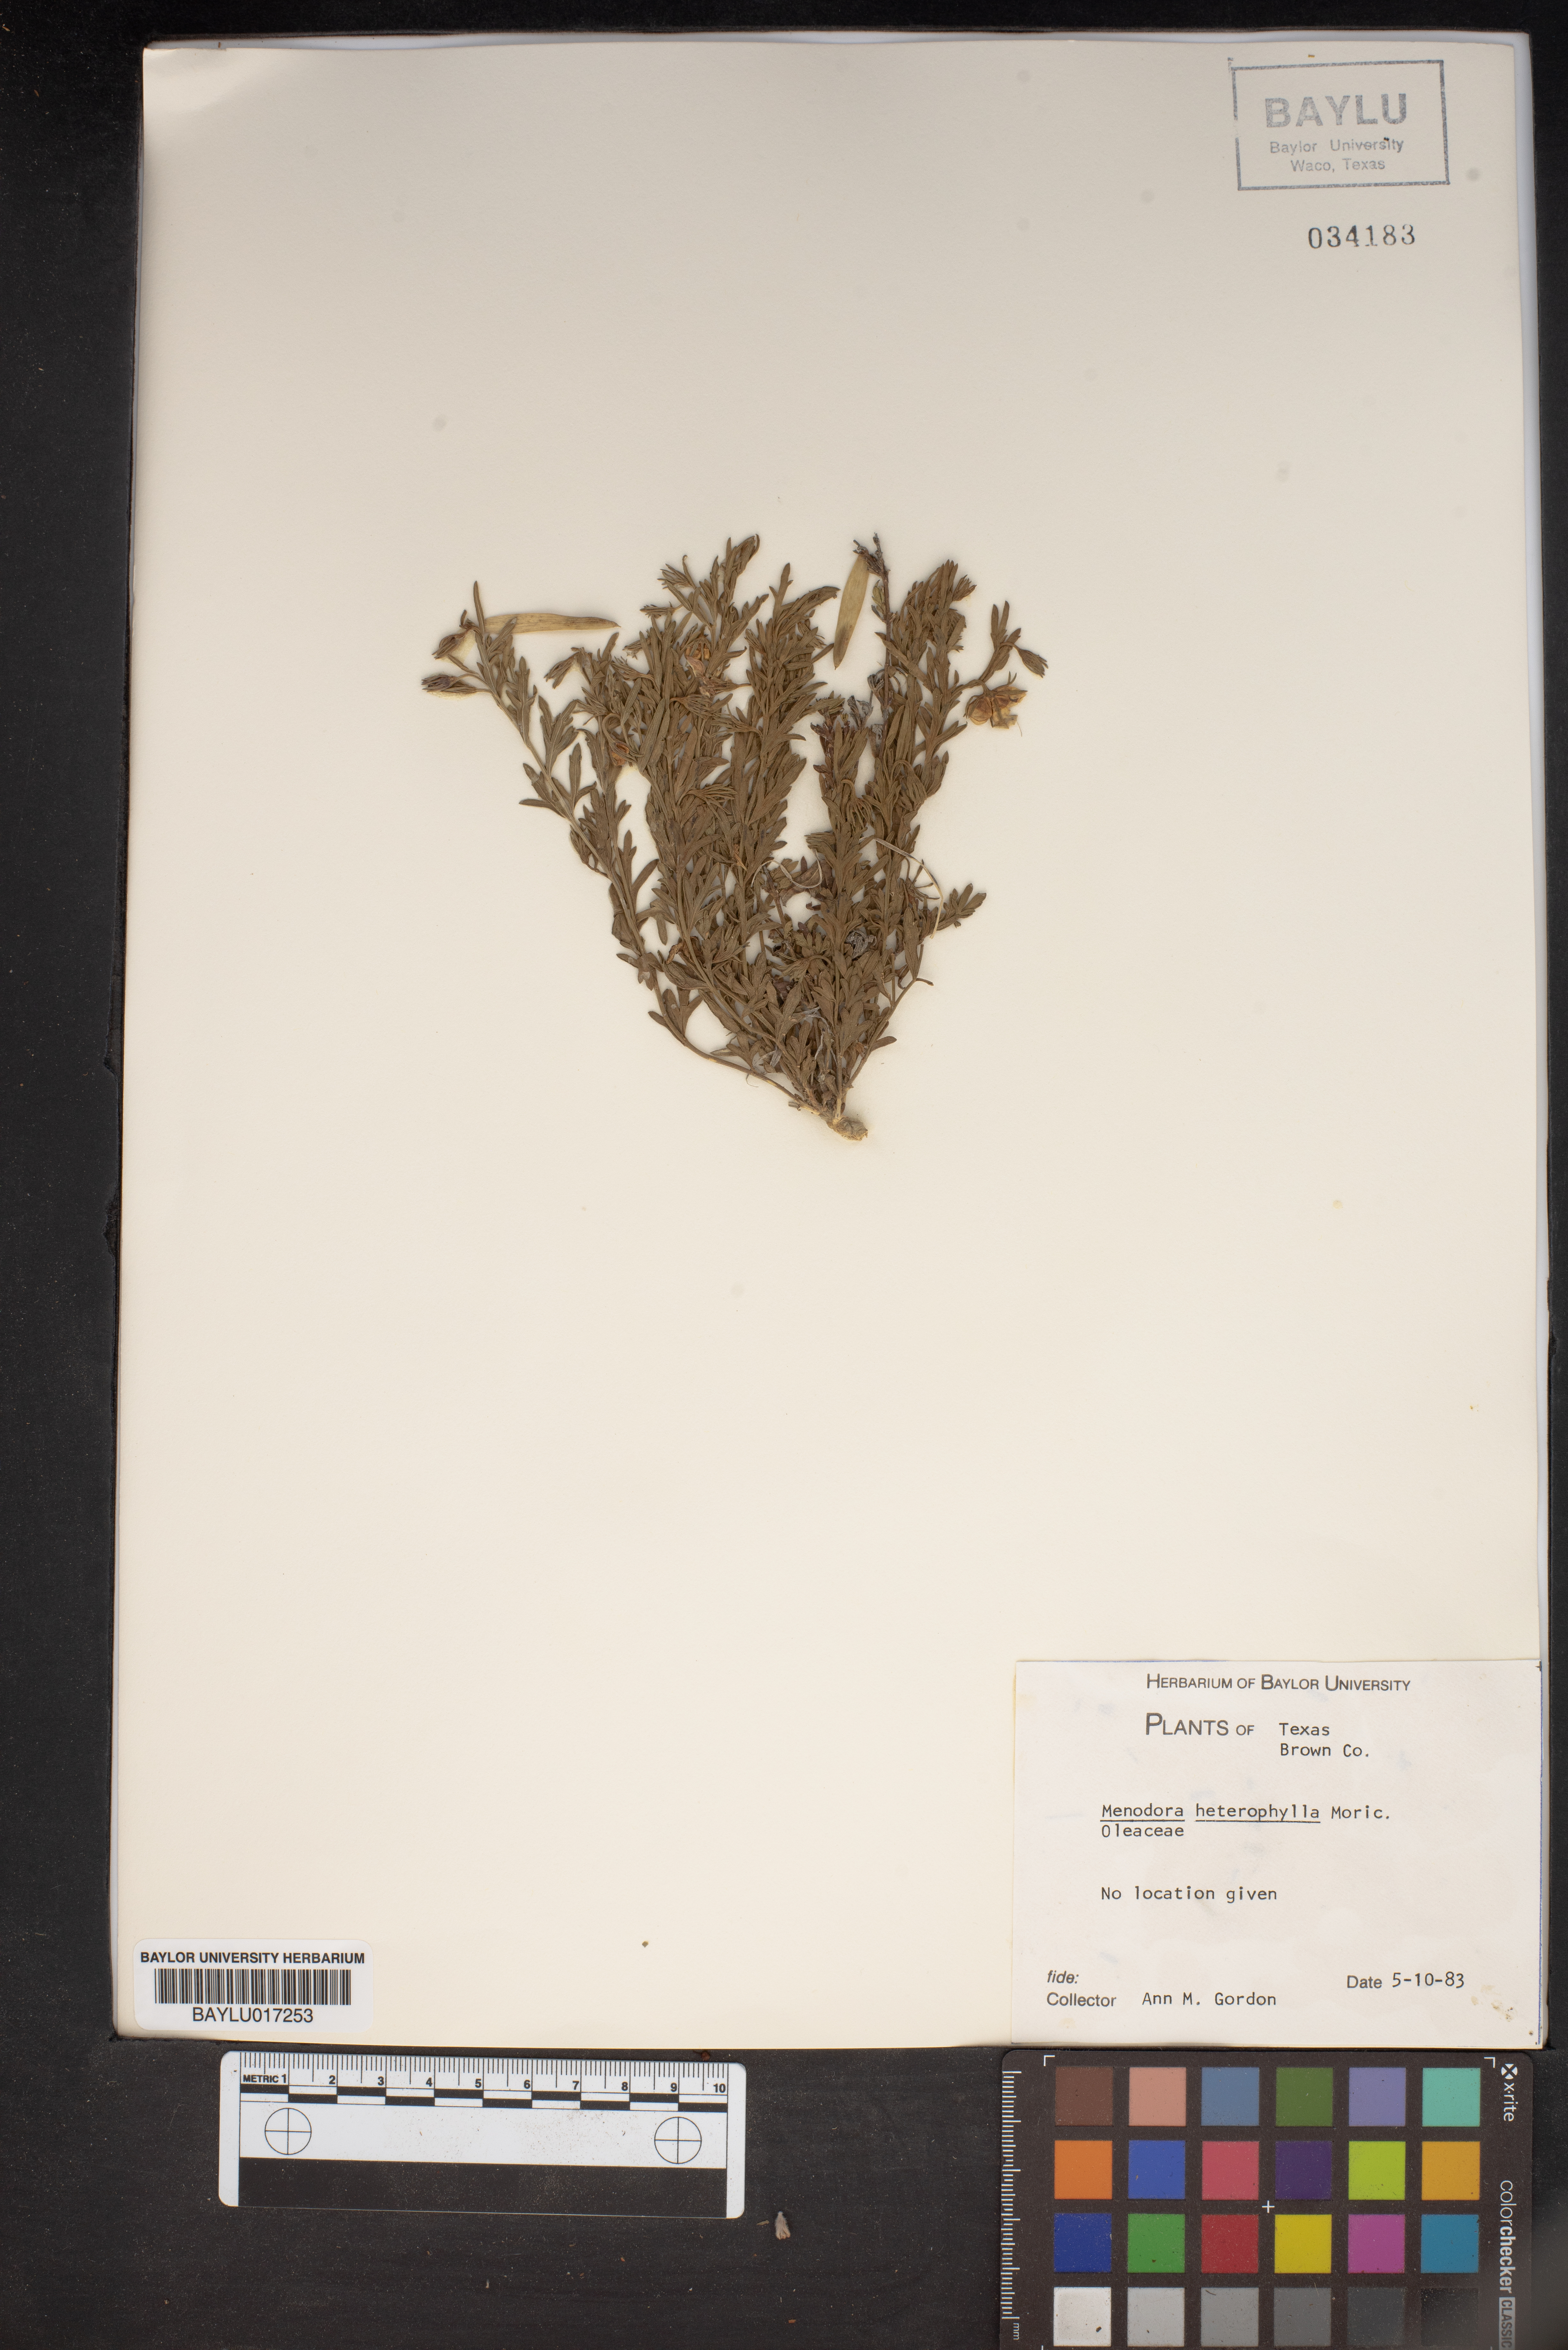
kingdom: Plantae
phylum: Tracheophyta
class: Magnoliopsida
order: Lamiales
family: Oleaceae
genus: Menodora
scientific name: Menodora heterophylla
